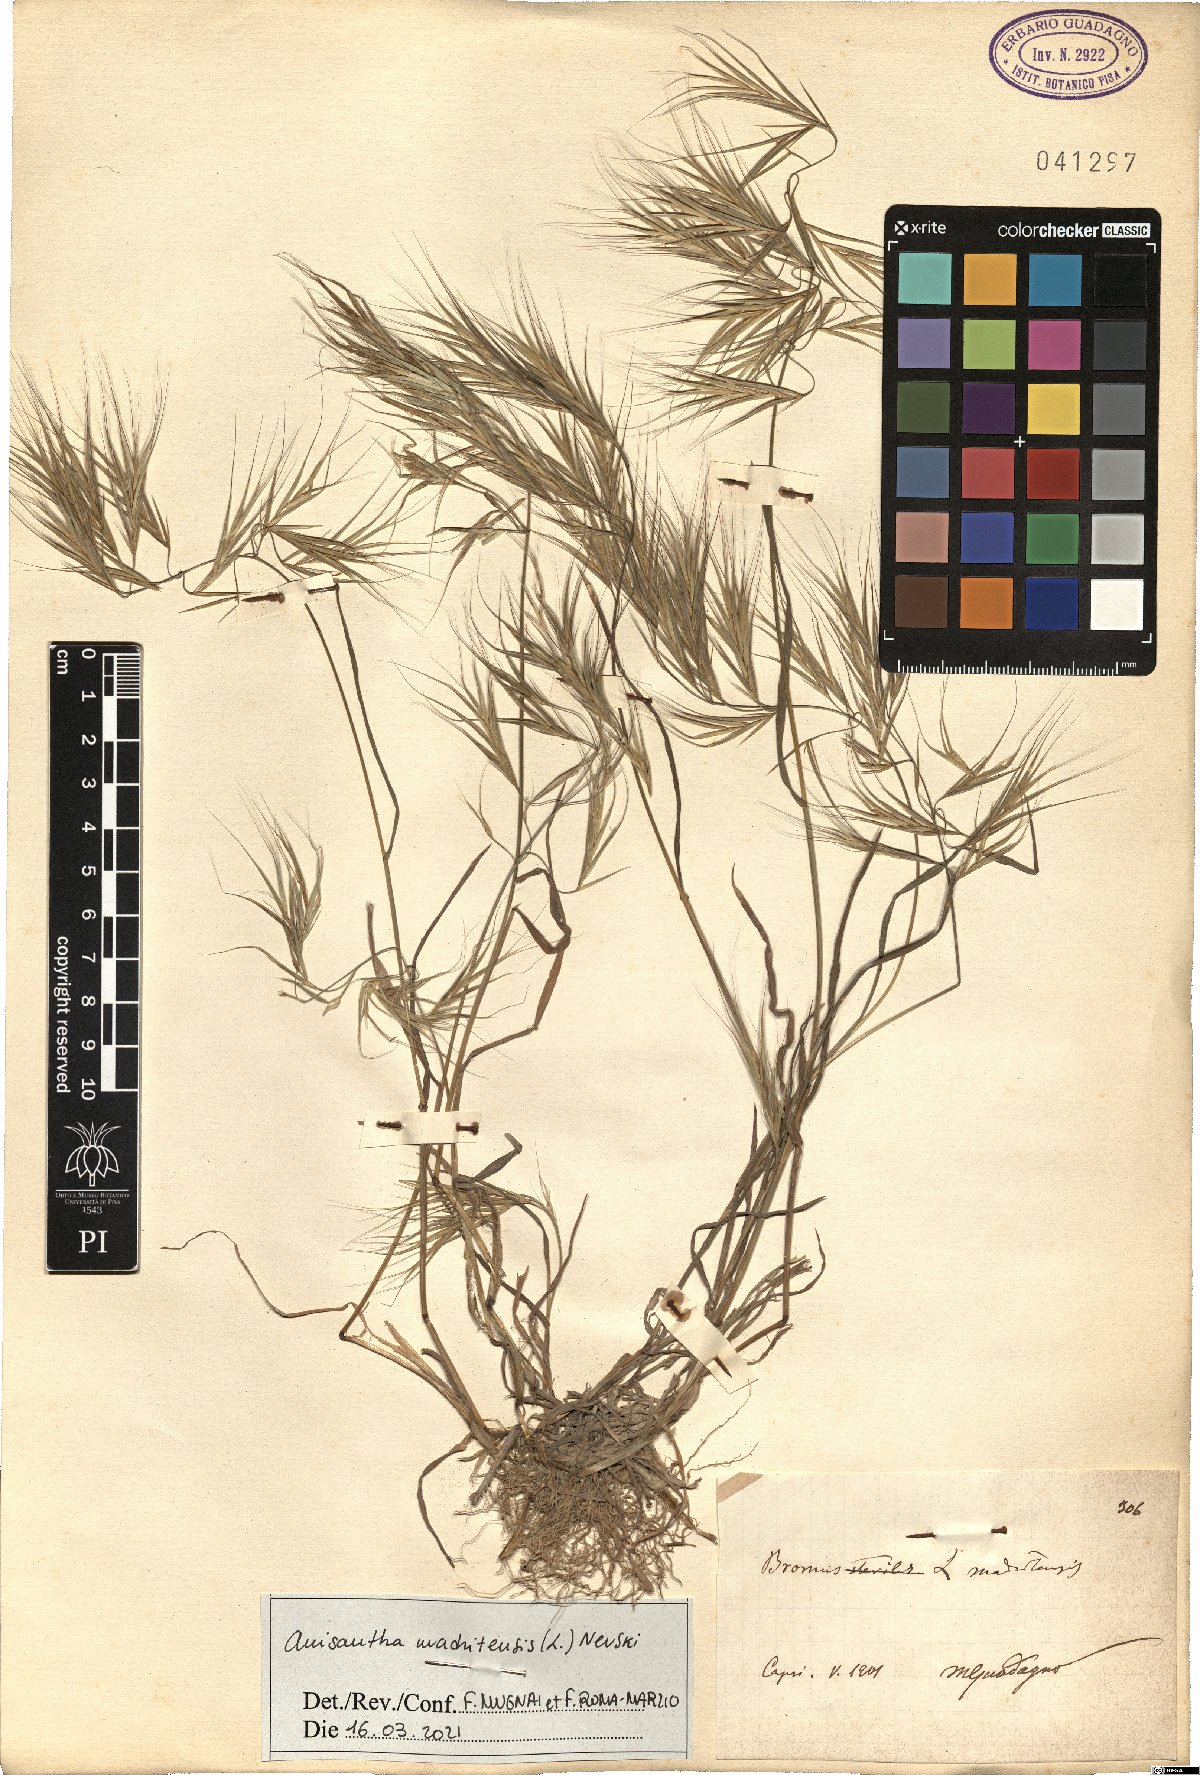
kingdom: Plantae
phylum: Tracheophyta
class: Liliopsida
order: Poales
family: Poaceae
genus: Bromus
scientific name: Bromus madritensis
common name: Compact brome
